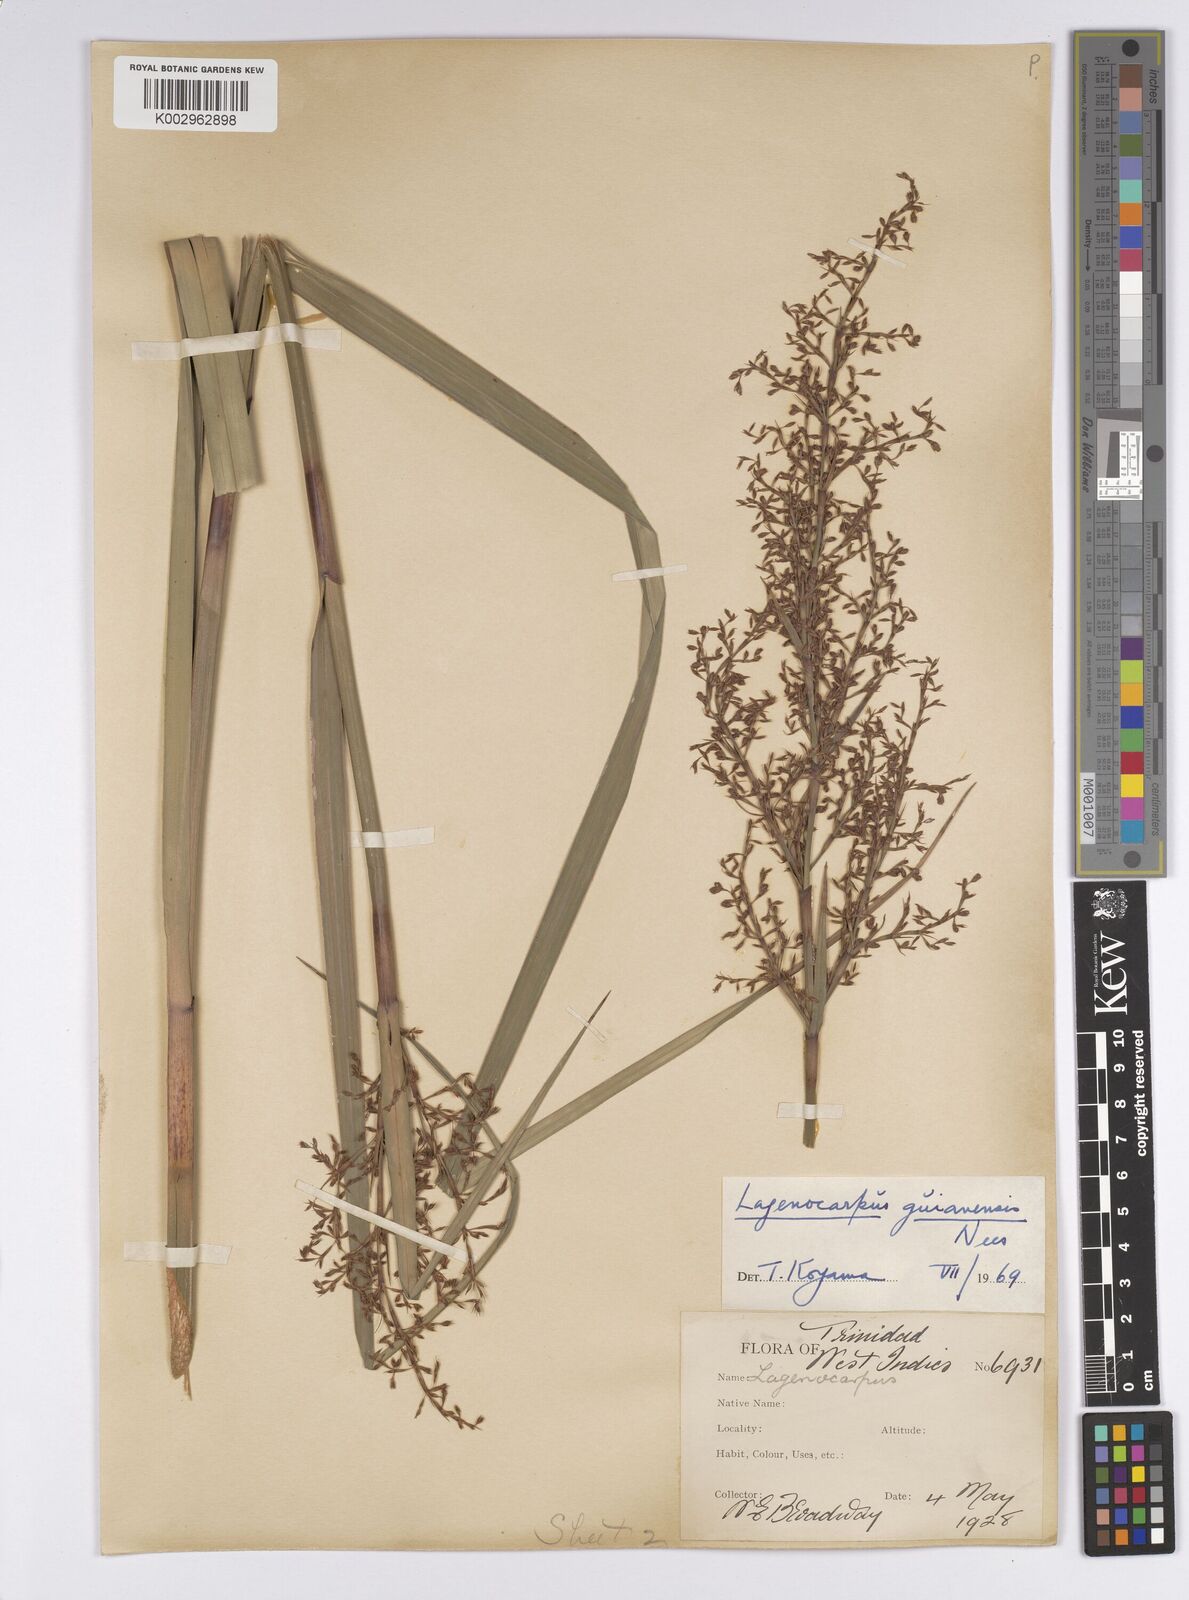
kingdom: Plantae
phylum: Tracheophyta
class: Liliopsida
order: Poales
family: Cyperaceae
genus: Lagenocarpus
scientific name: Lagenocarpus guianensis
